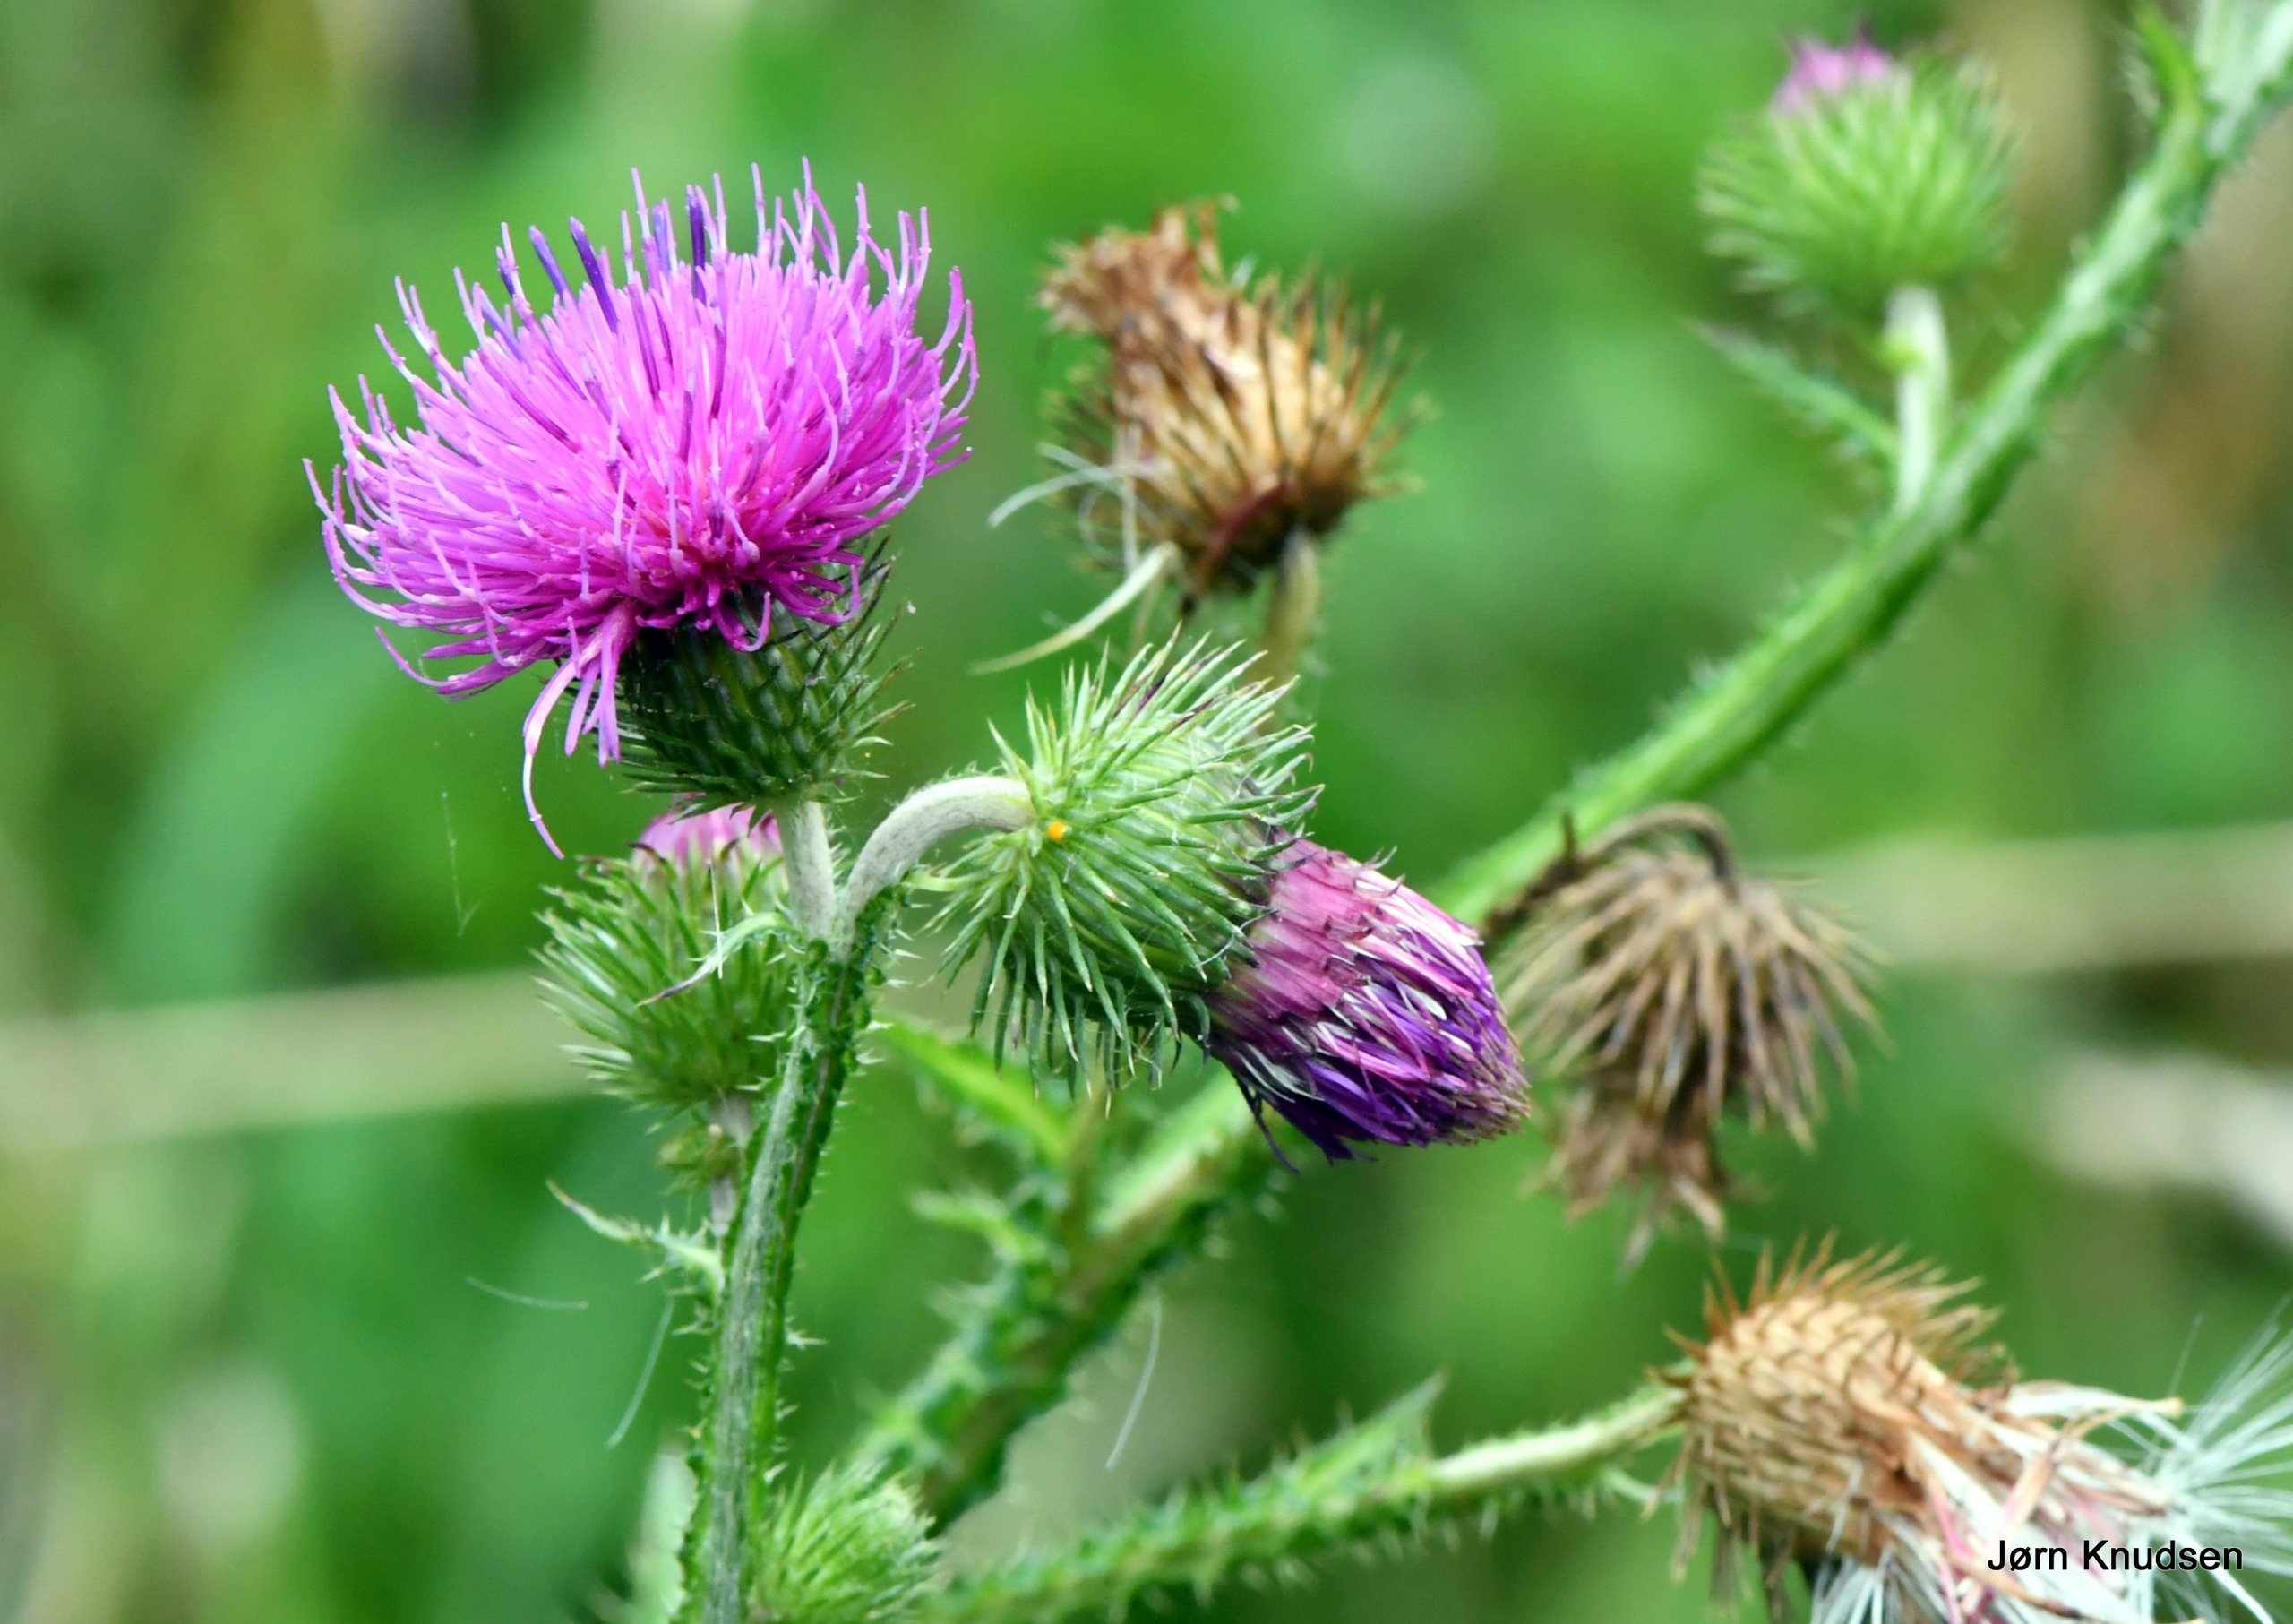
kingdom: Plantae
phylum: Tracheophyta
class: Magnoliopsida
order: Asterales
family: Asteraceae
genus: Carduus
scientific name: Carduus crispus
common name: Kruset tidsel
